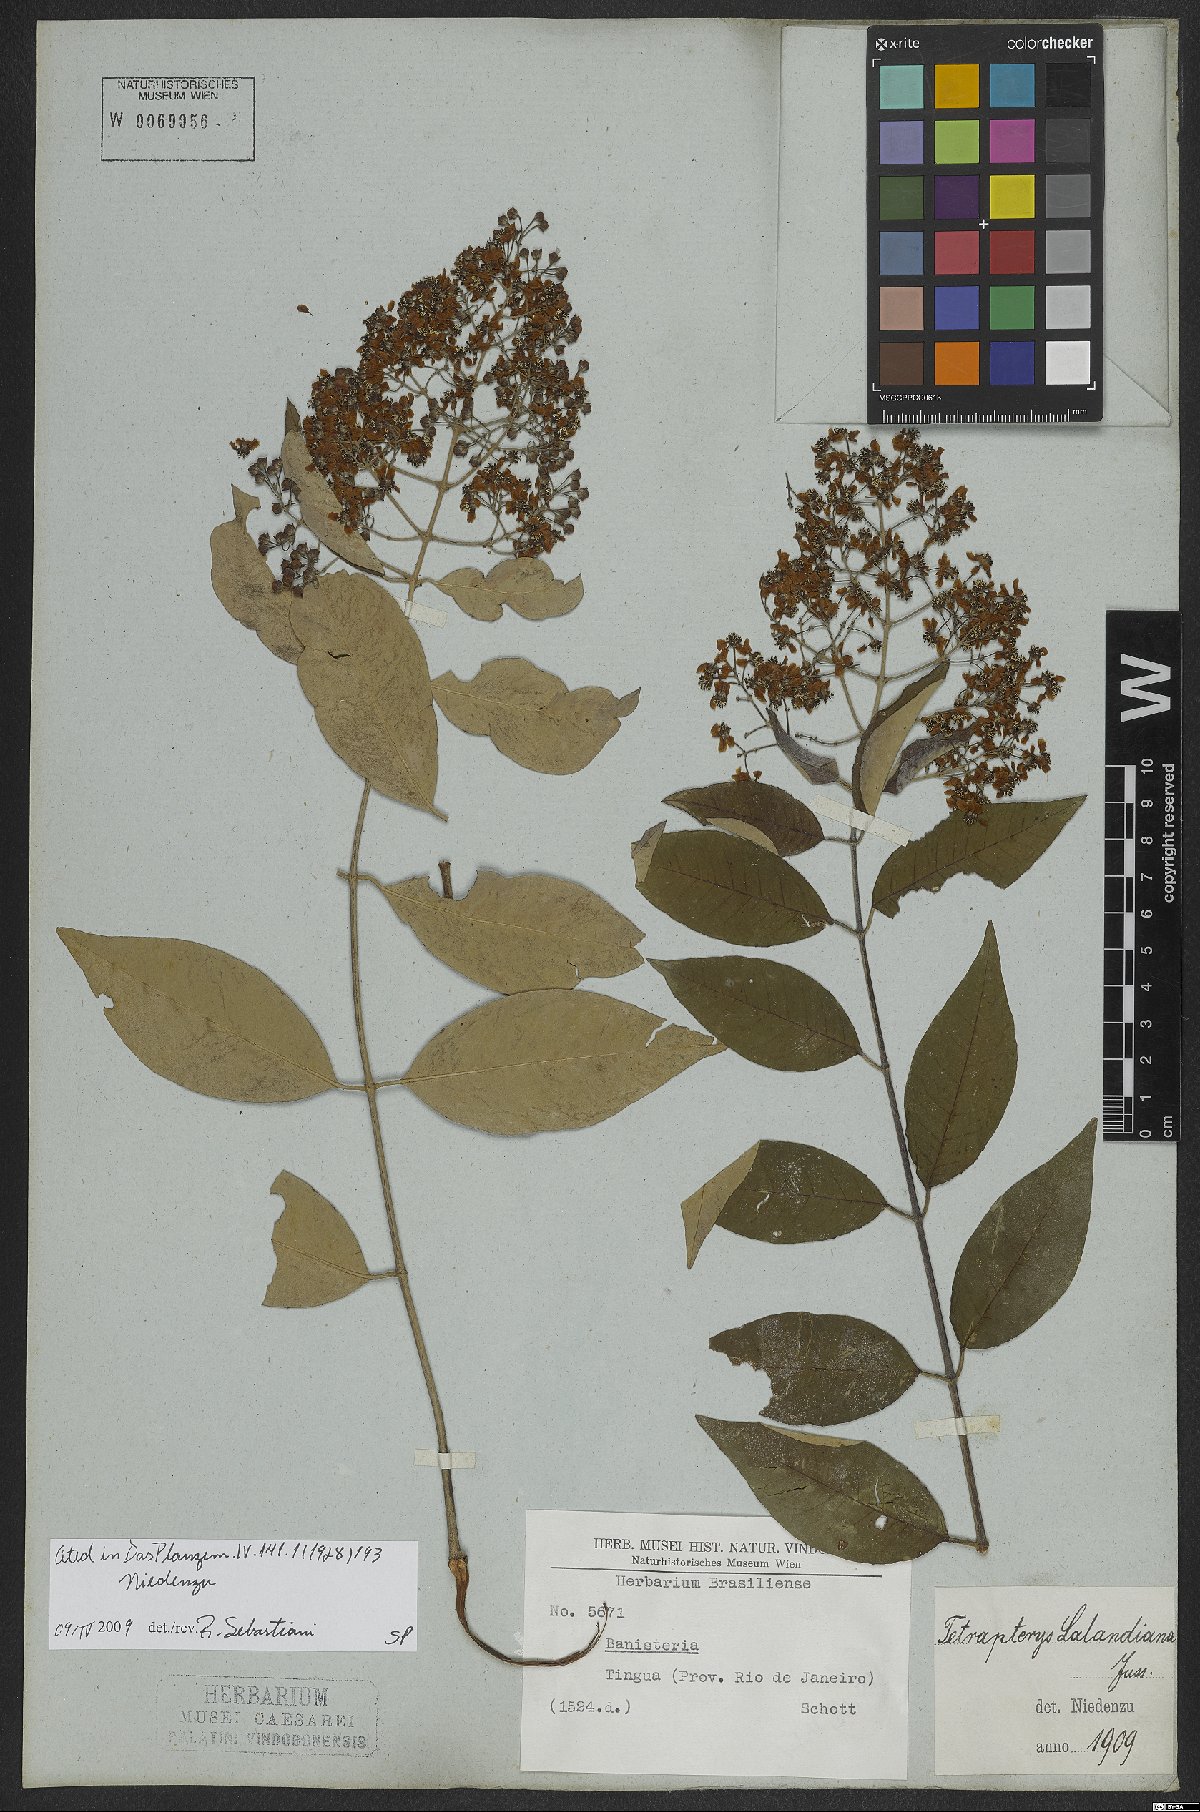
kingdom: Plantae
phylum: Tracheophyta
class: Magnoliopsida
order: Malpighiales
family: Malpighiaceae
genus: Niedenzuella
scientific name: Niedenzuella sericea
